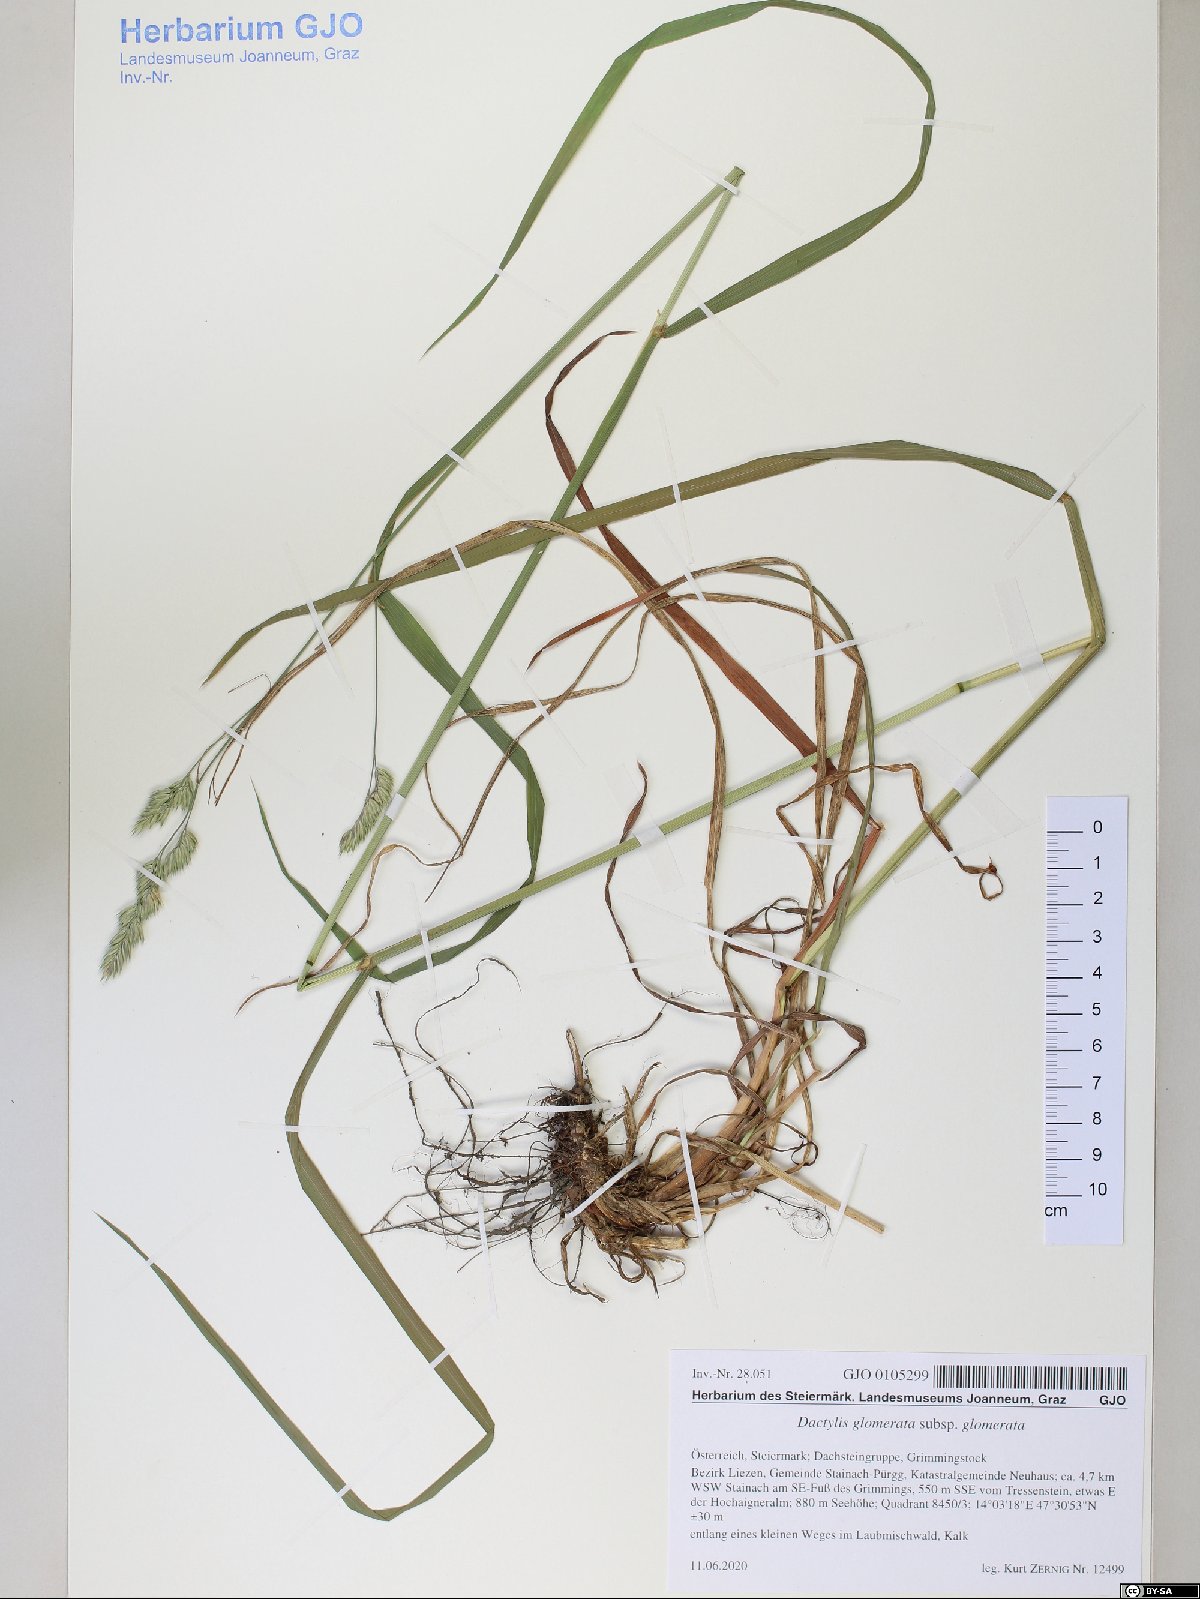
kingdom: Plantae
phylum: Tracheophyta
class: Liliopsida
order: Poales
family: Poaceae
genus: Dactylis
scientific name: Dactylis glomerata
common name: Orchardgrass
